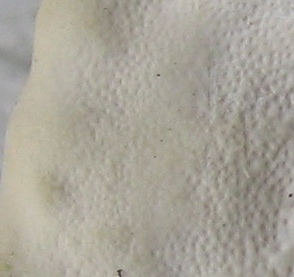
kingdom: Fungi
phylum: Basidiomycota
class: Agaricomycetes
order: Polyporales
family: Polyporaceae
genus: Trametes
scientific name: Trametes
